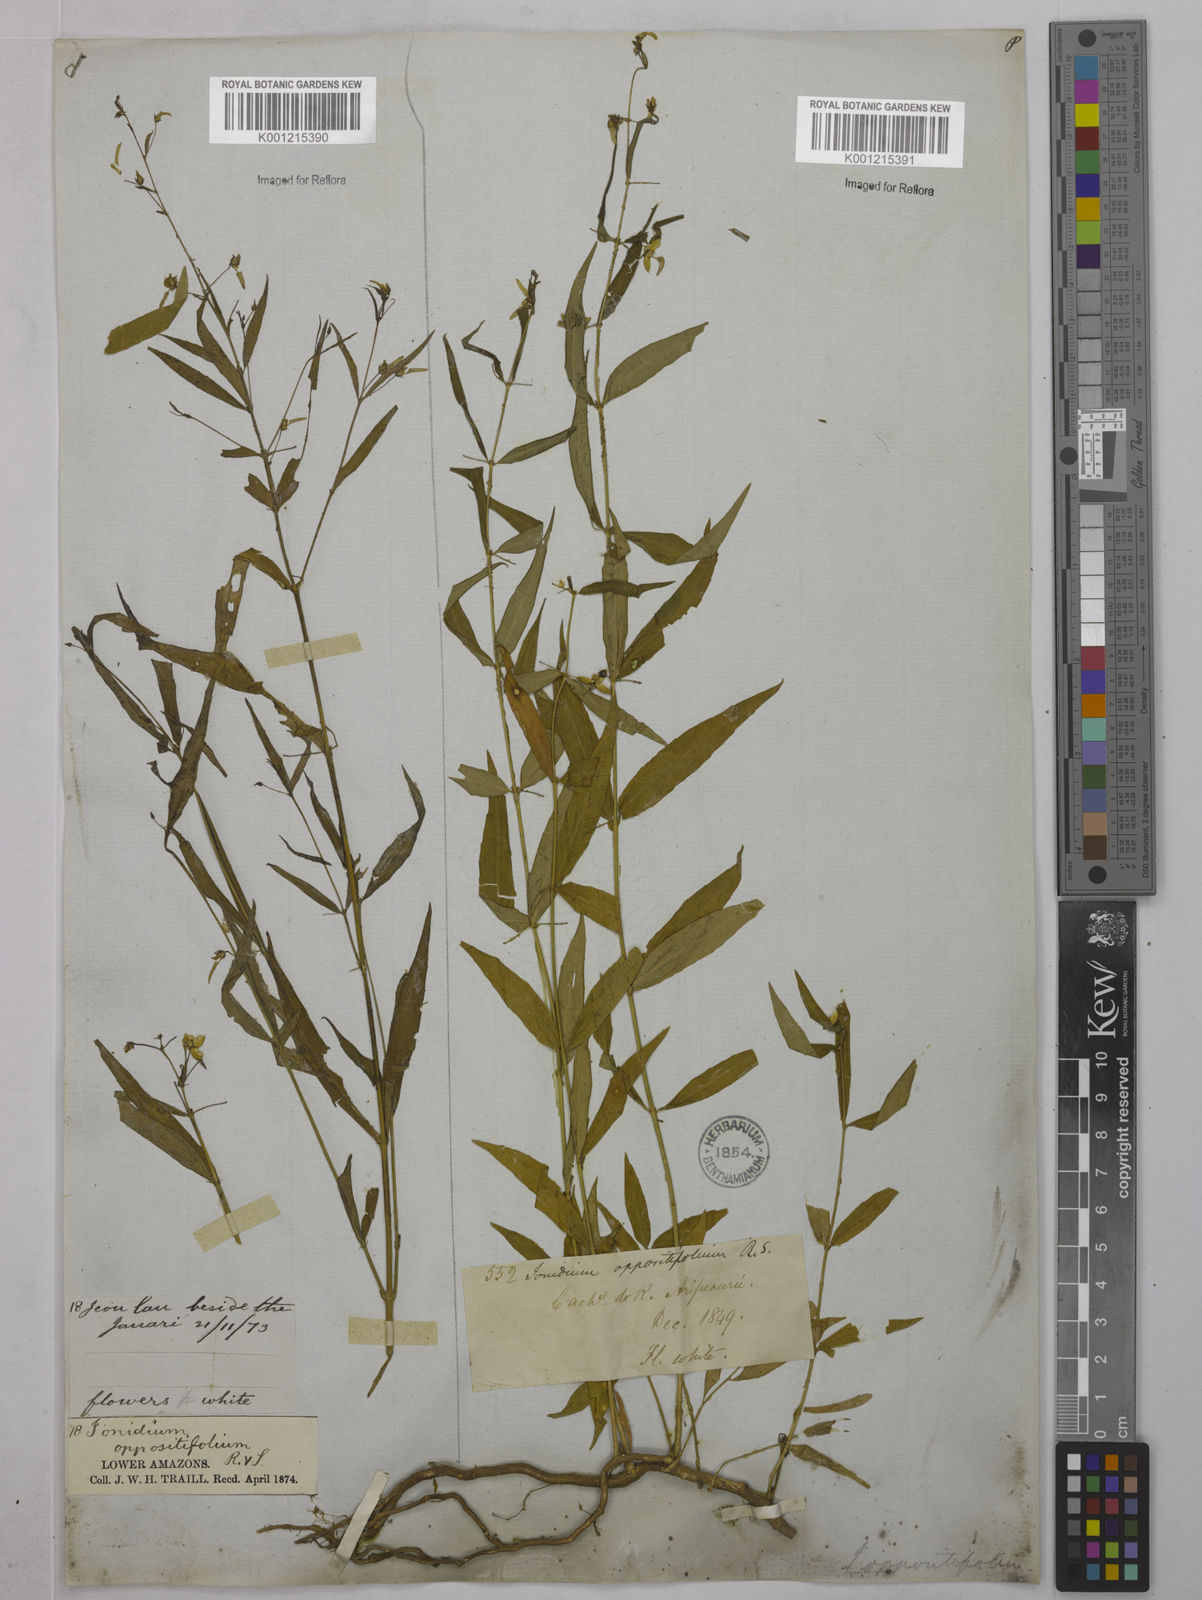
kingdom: Plantae
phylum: Tracheophyta
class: Magnoliopsida
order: Malpighiales
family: Violaceae
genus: Pombalia
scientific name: Pombalia oppositifolia
